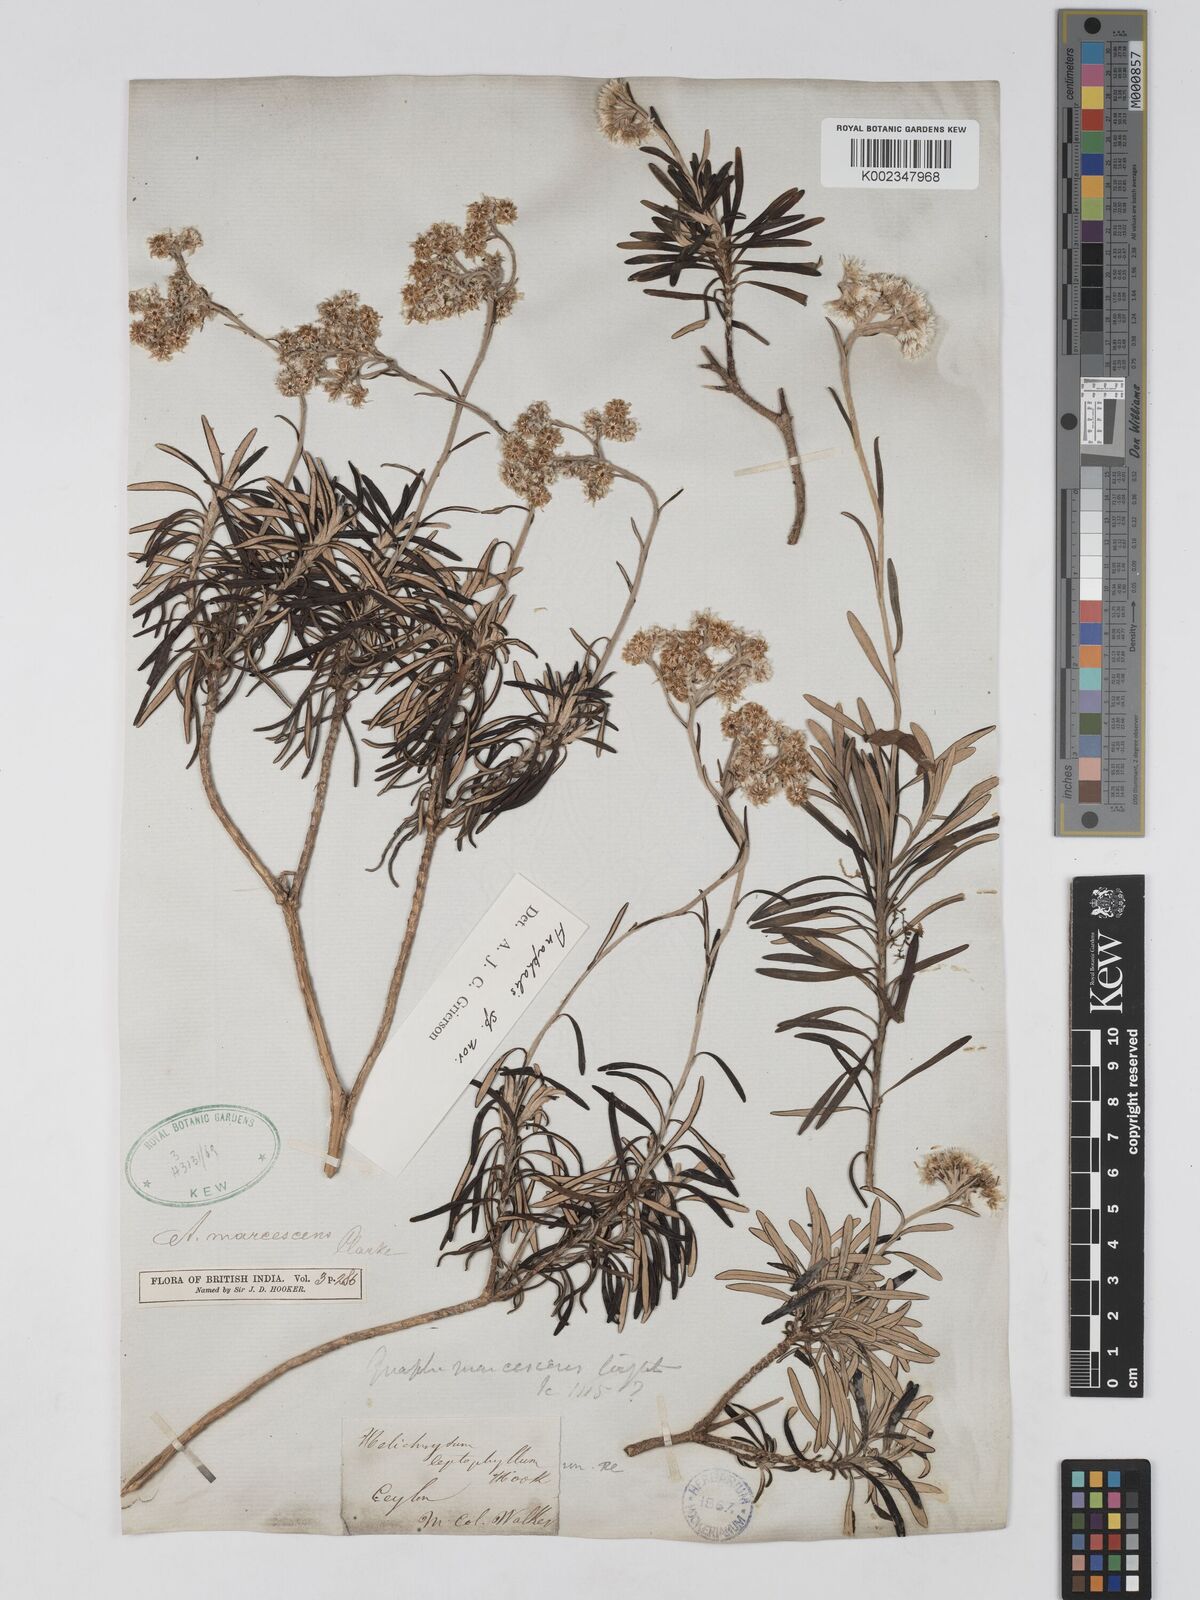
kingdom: Plantae
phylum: Tracheophyta
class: Magnoliopsida
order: Asterales
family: Asteraceae
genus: Anaphalis
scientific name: Anaphalis
